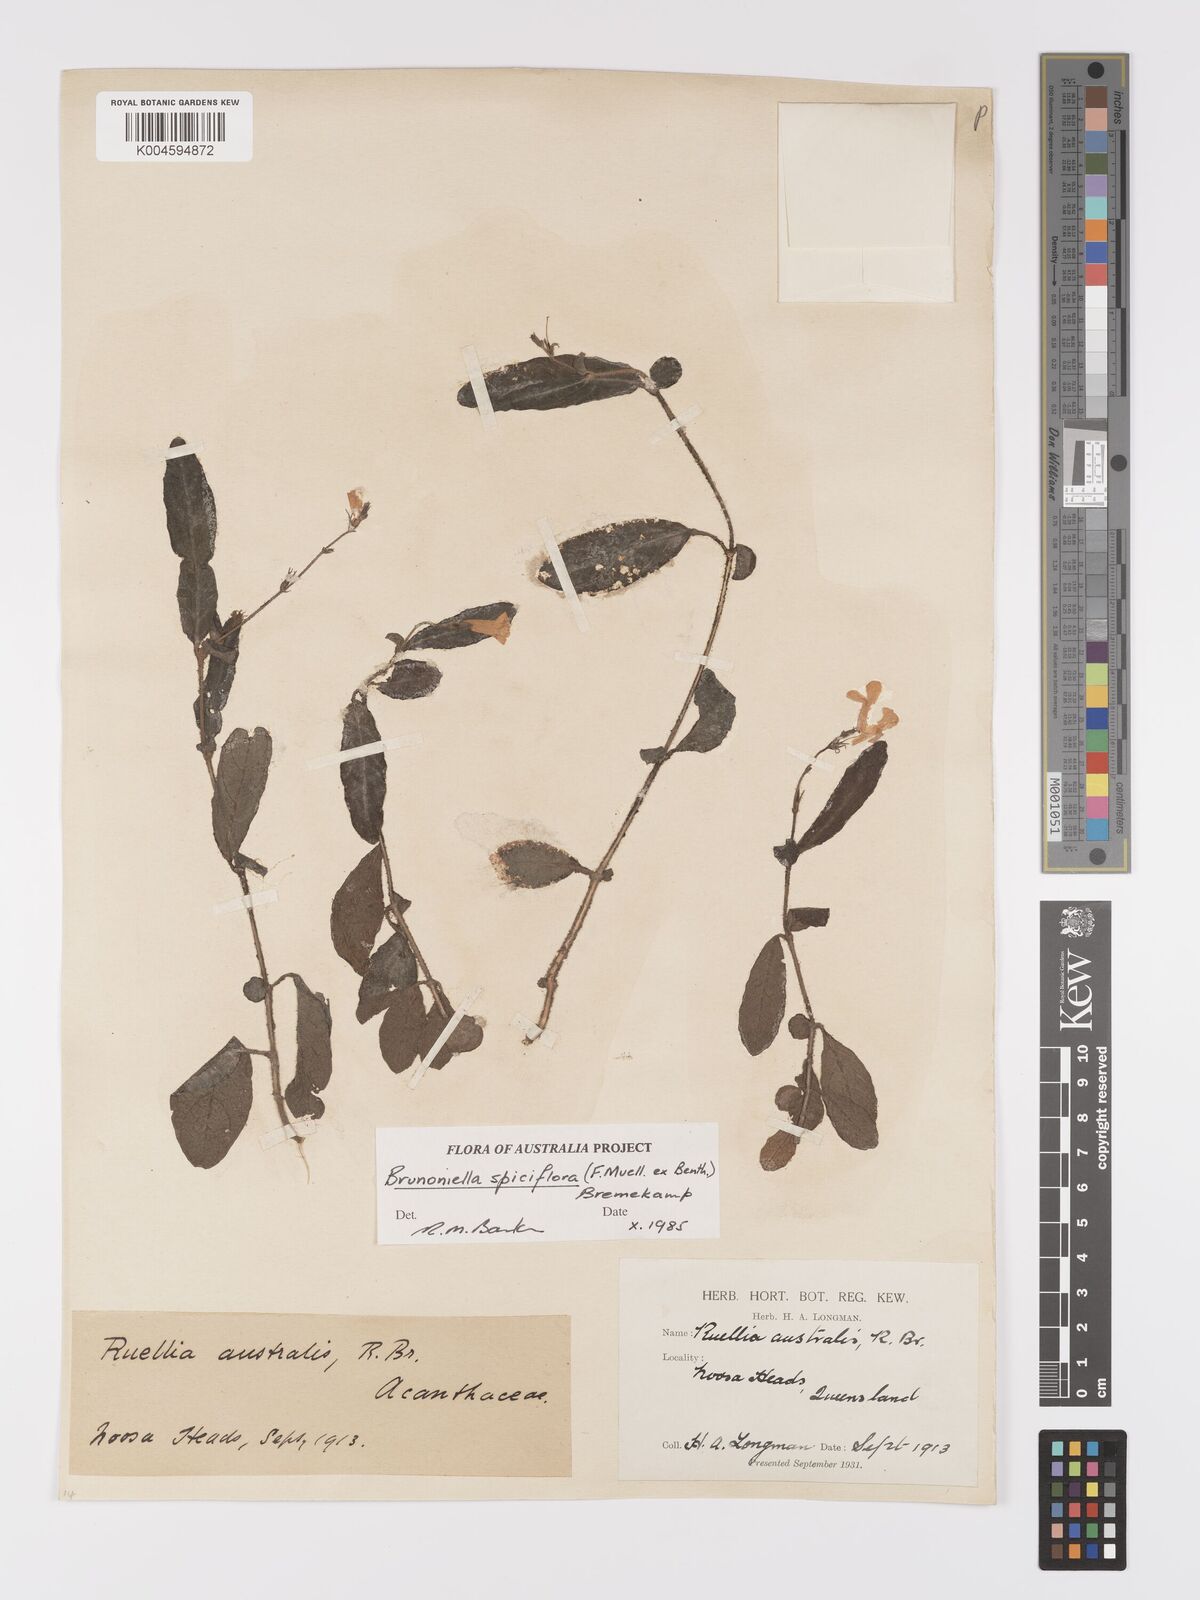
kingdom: Plantae
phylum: Tracheophyta
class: Magnoliopsida
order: Lamiales
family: Acanthaceae
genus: Brunoniella
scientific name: Brunoniella spiciflora
